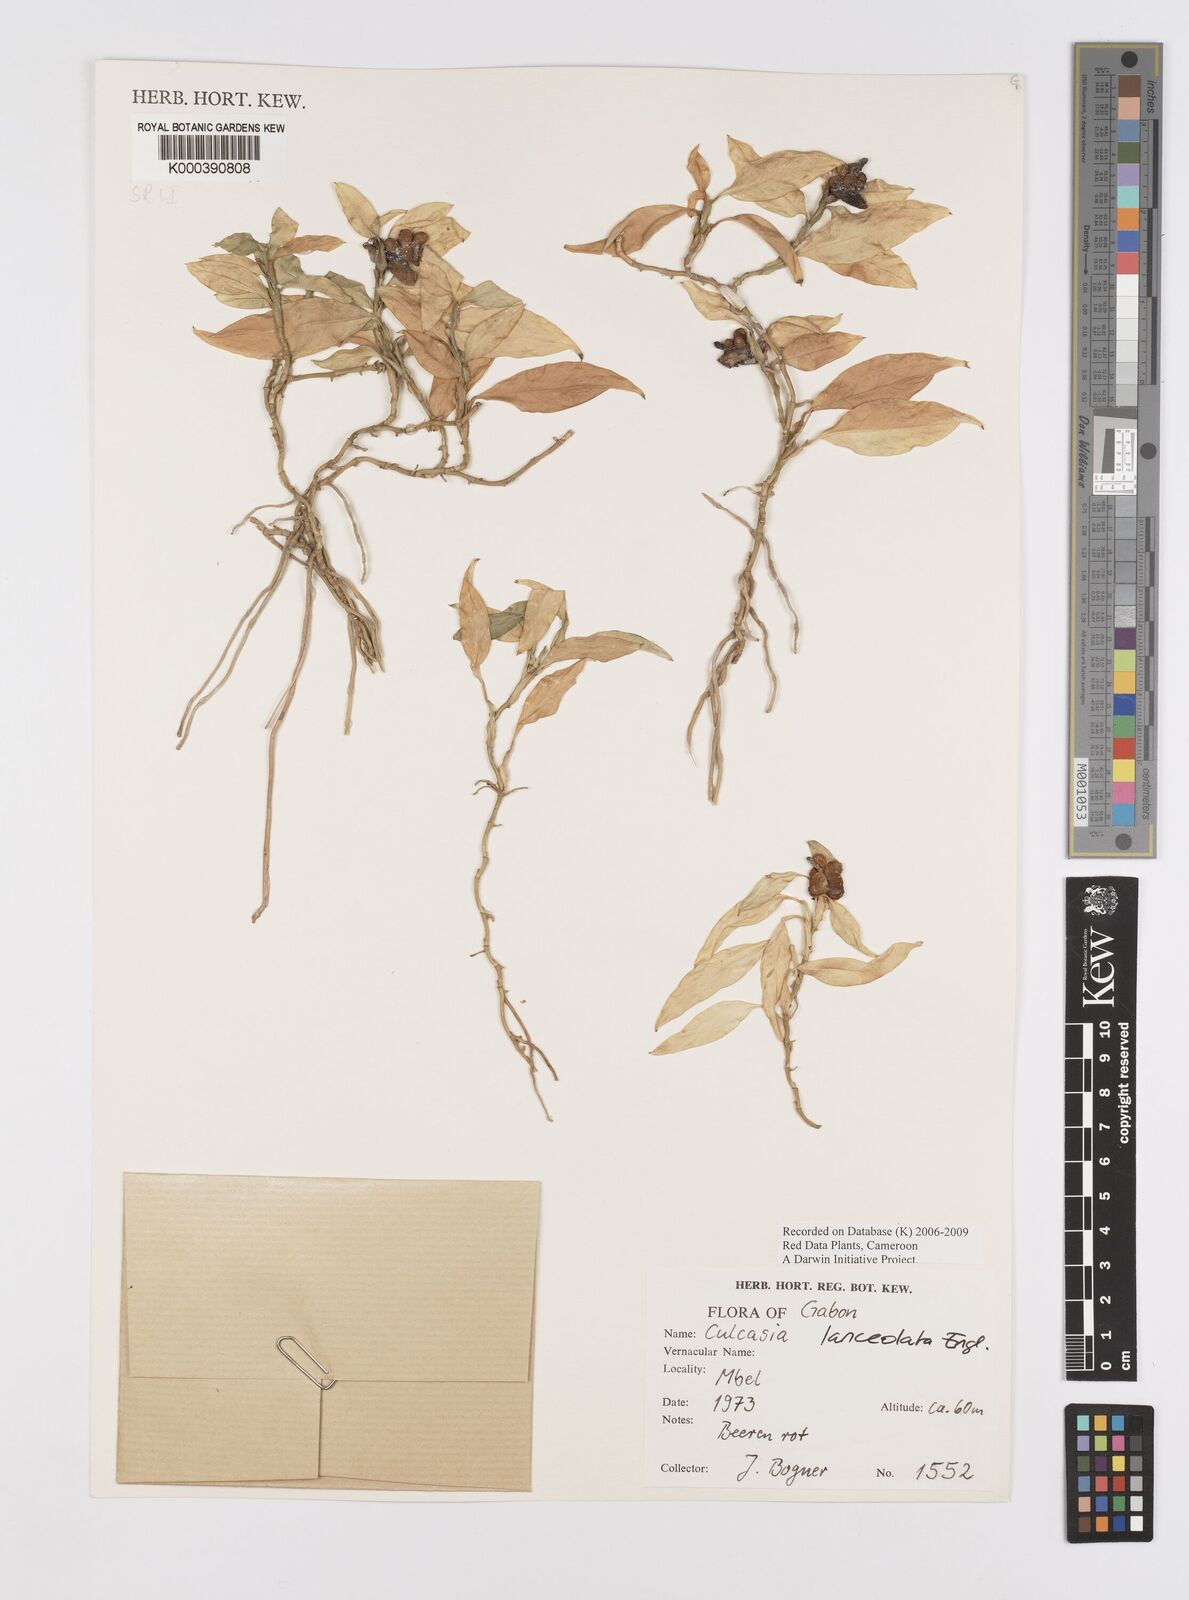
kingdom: Plantae
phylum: Tracheophyta
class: Liliopsida
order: Alismatales
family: Araceae
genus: Culcasia
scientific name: Culcasia lanceolata
